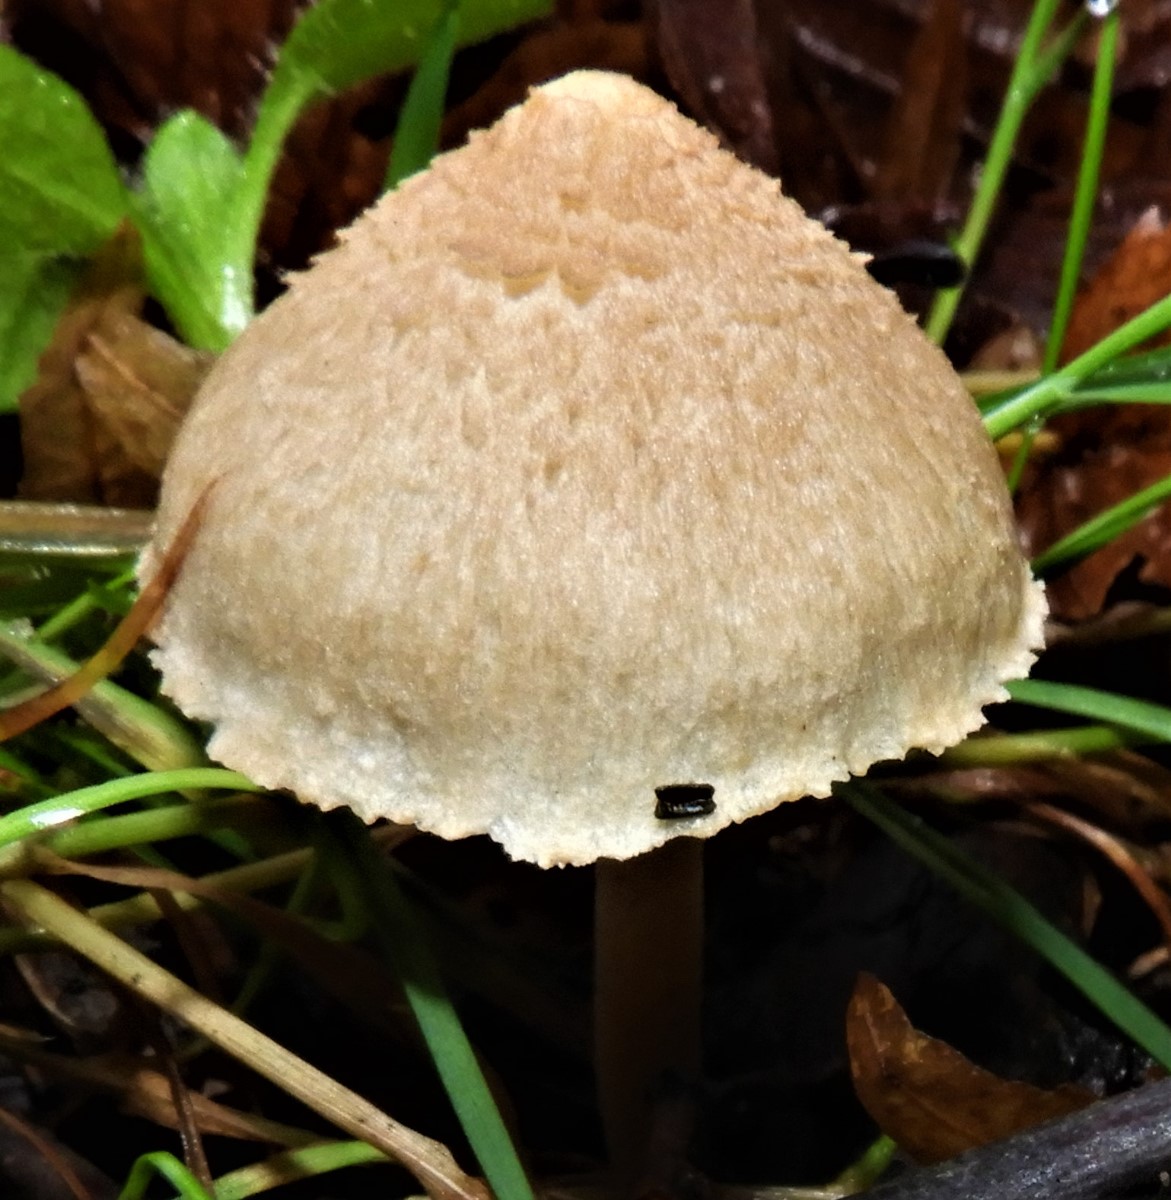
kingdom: Fungi
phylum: Basidiomycota
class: Agaricomycetes
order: Agaricales
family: Inocybaceae
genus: Inocybe
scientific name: Inocybe sindonia
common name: bleg trævlhat
